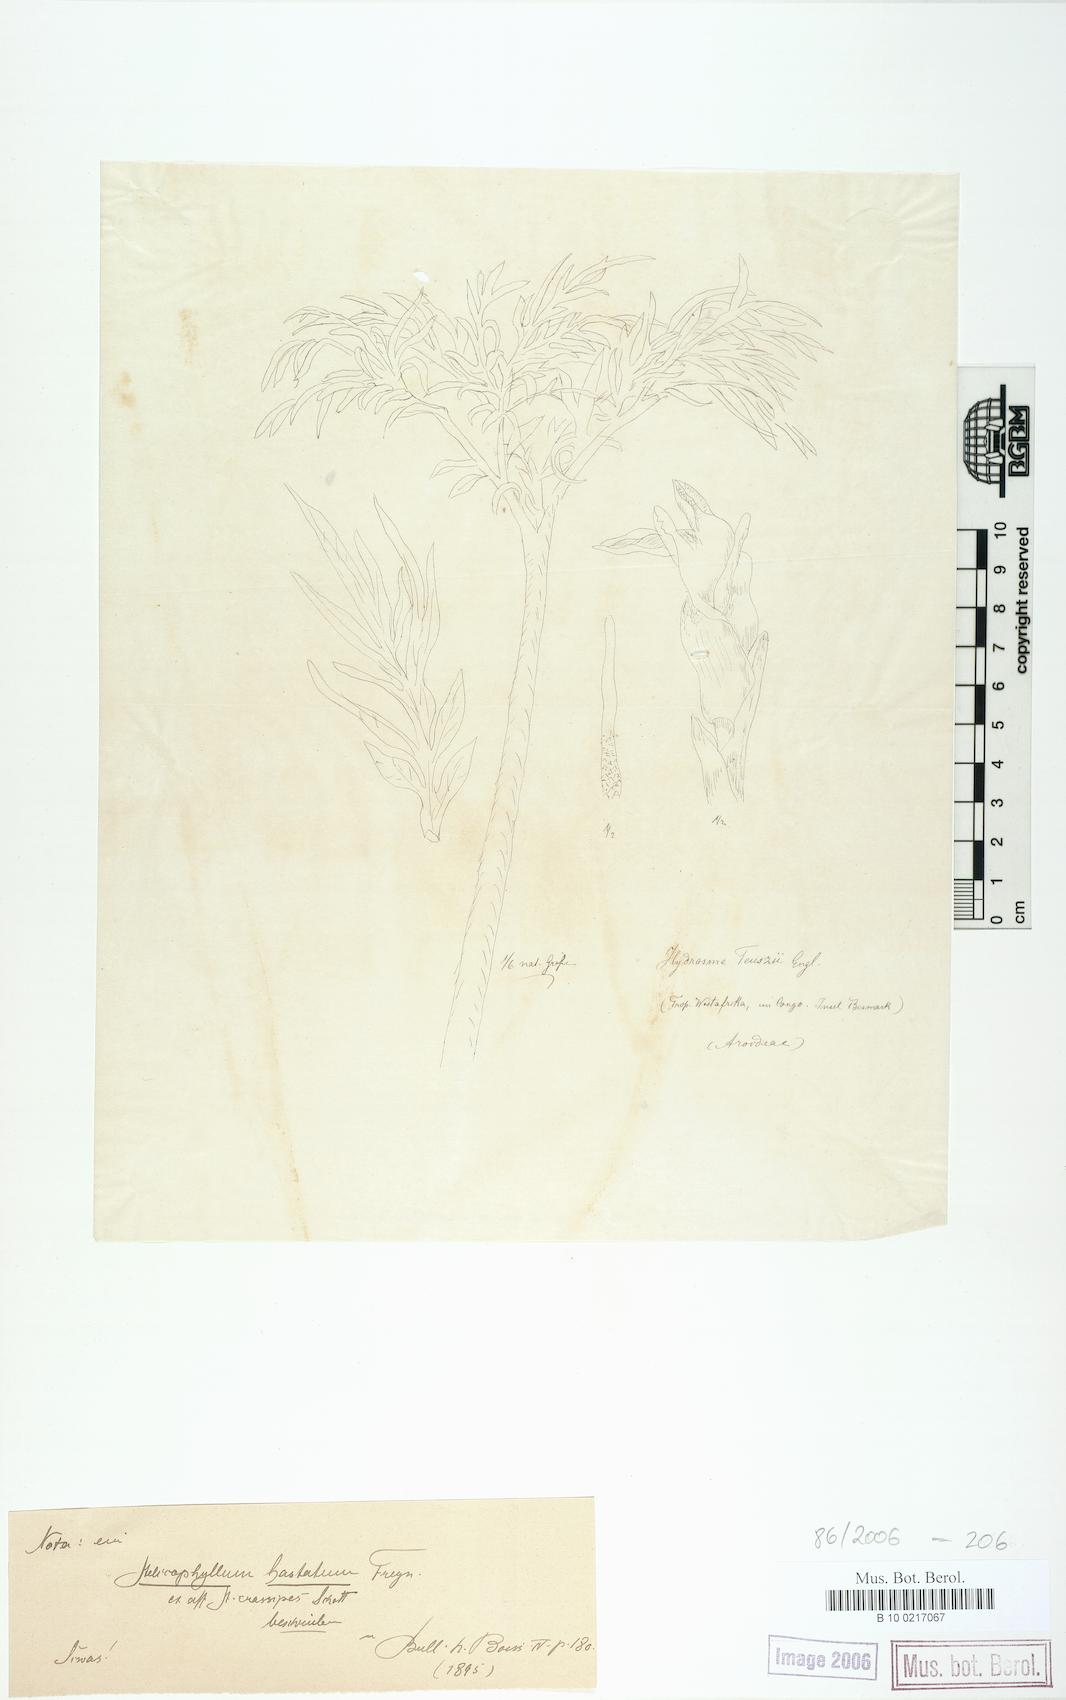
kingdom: Plantae
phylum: Tracheophyta
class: Liliopsida
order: Alismatales
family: Araceae
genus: Amorphophallus
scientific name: Amorphophallus teuszii
